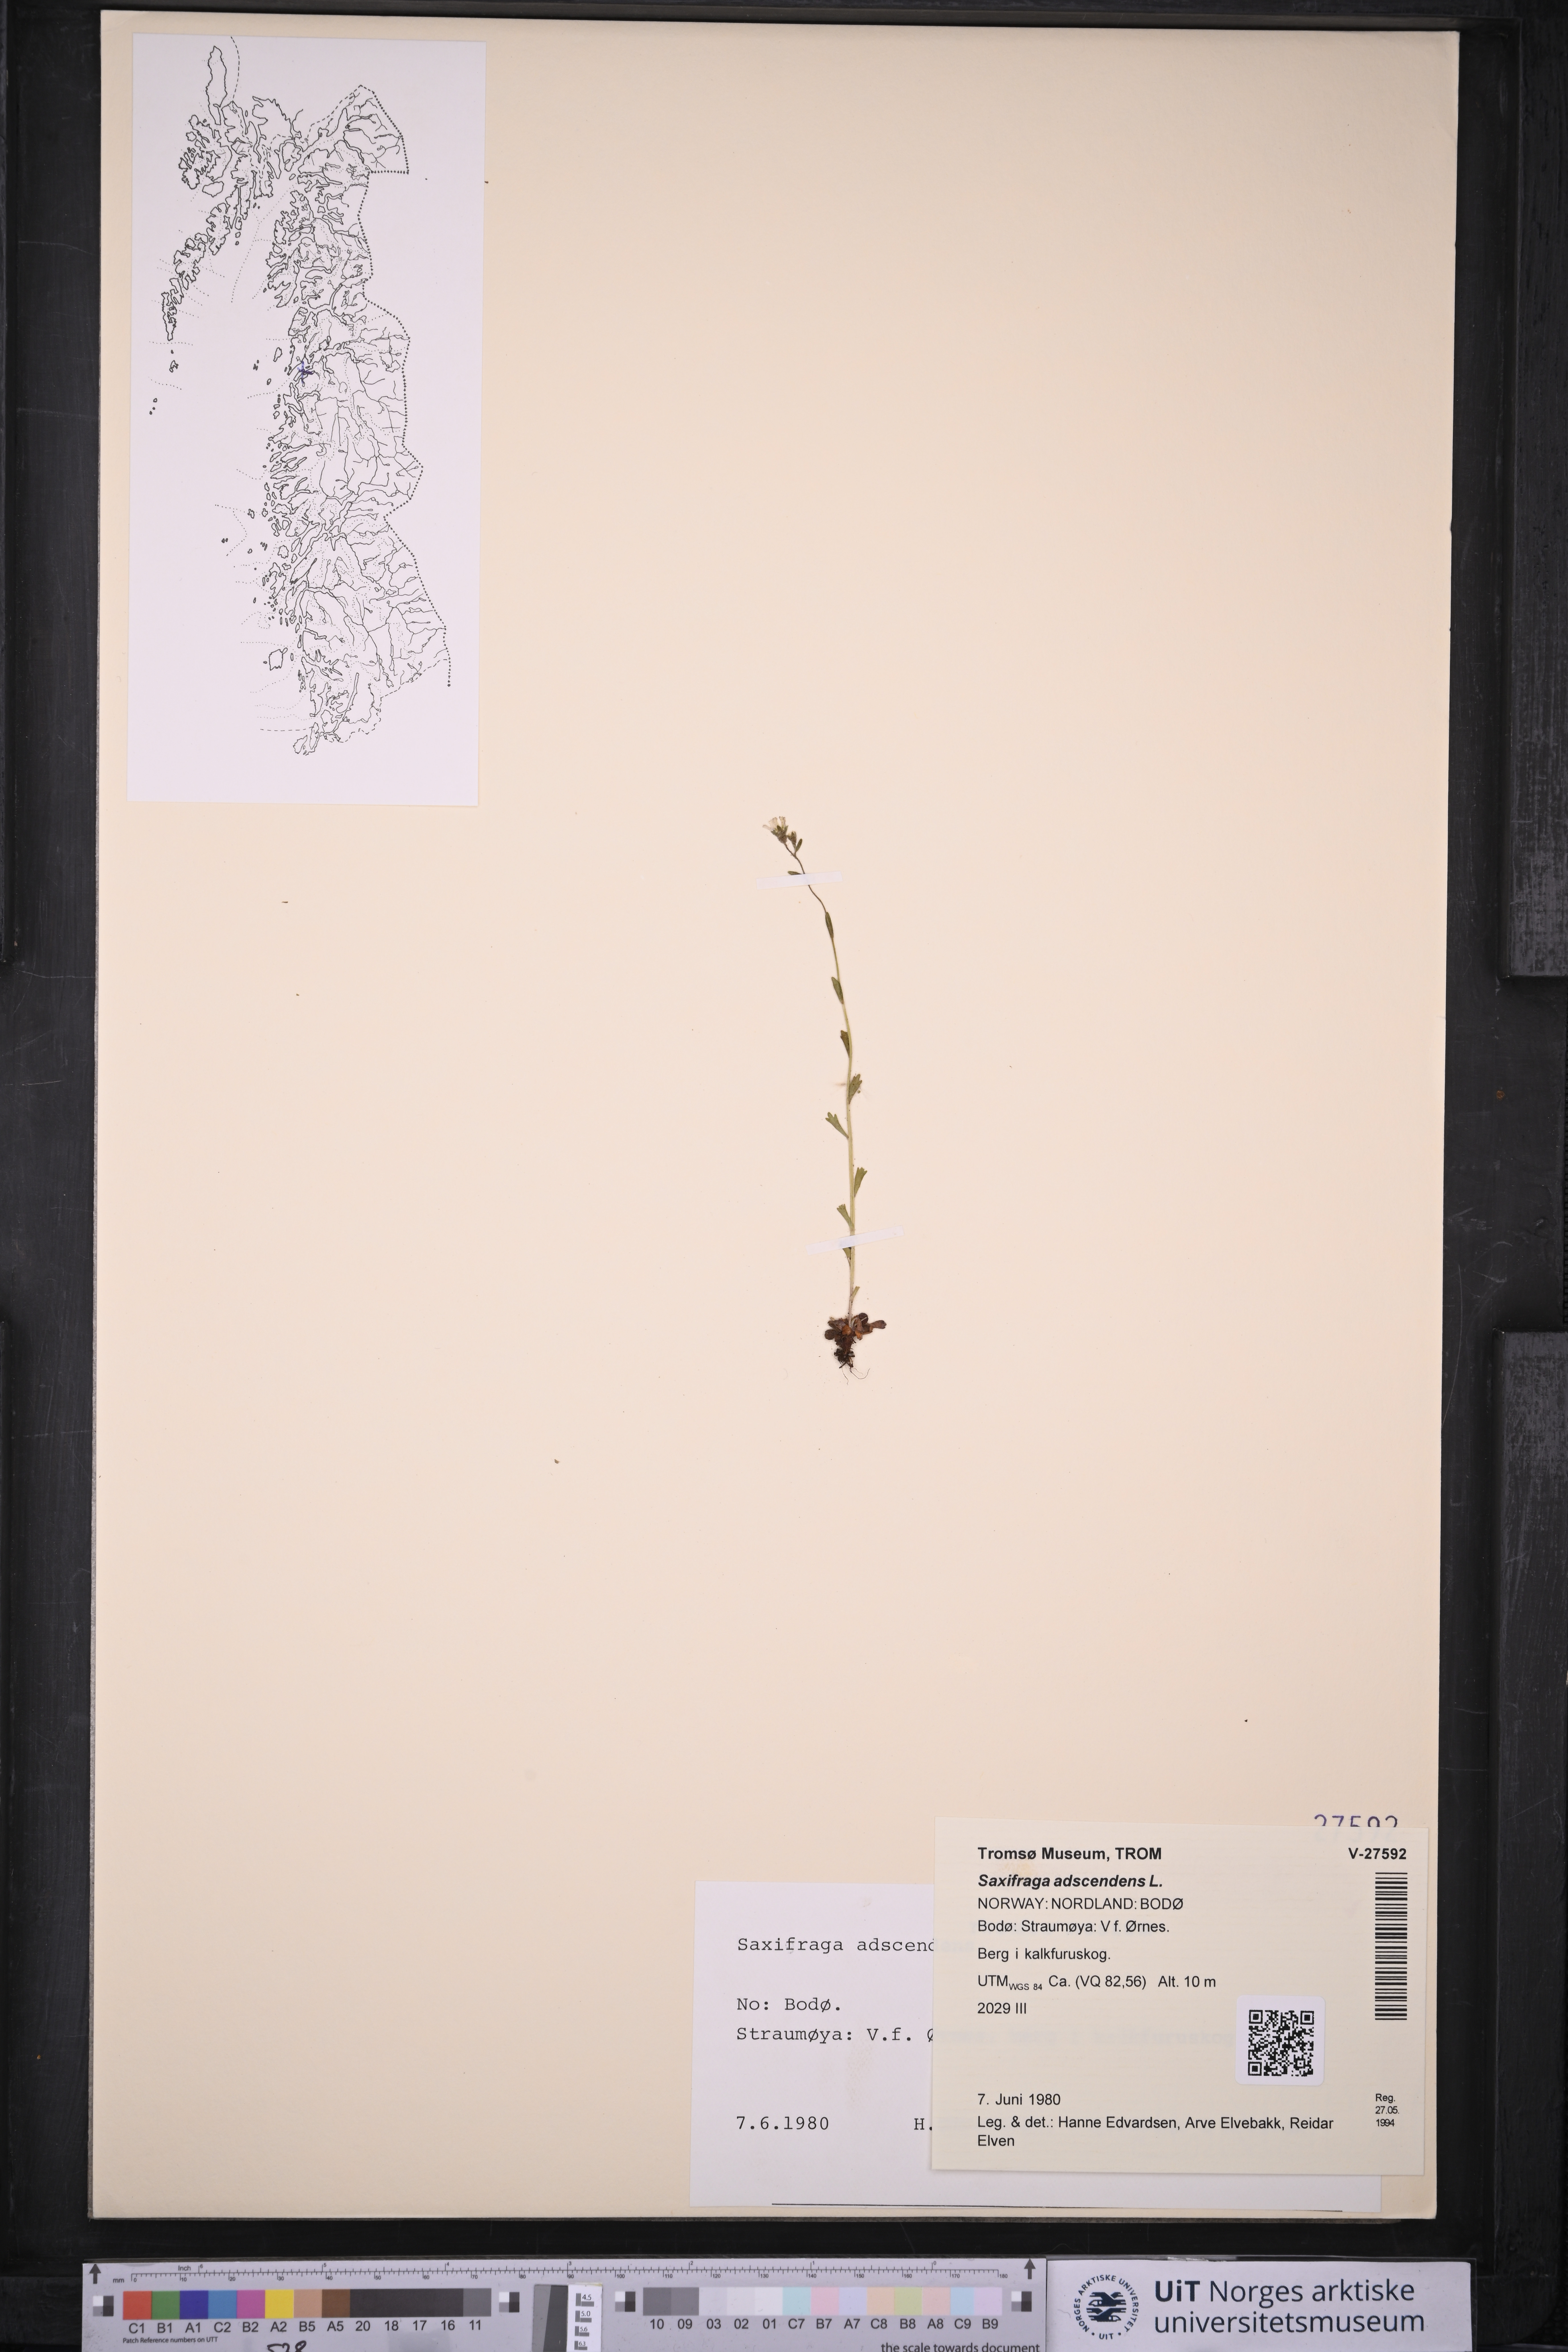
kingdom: Plantae
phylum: Tracheophyta
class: Magnoliopsida
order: Saxifragales
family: Saxifragaceae
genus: Saxifraga
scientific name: Saxifraga adscendens
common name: Ascending saxifrage
